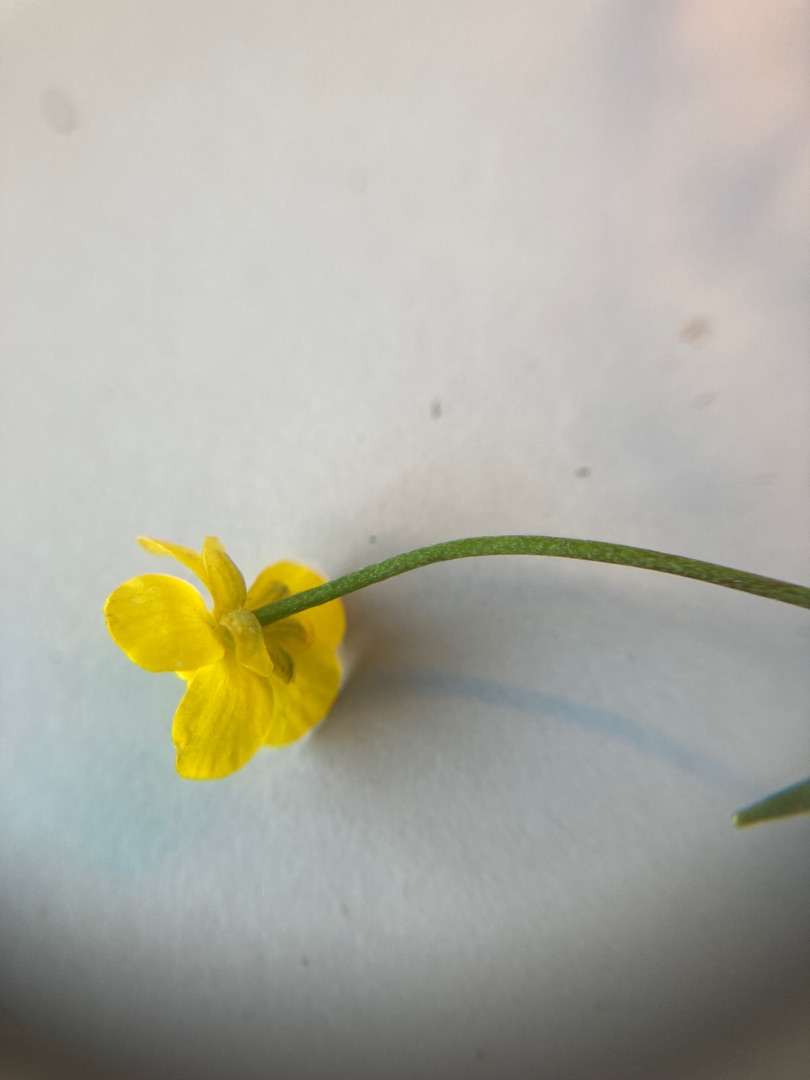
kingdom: Plantae
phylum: Tracheophyta
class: Magnoliopsida
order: Ranunculales
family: Ranunculaceae
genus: Ranunculus
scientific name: Ranunculus flammula
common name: Kær-ranunkel
